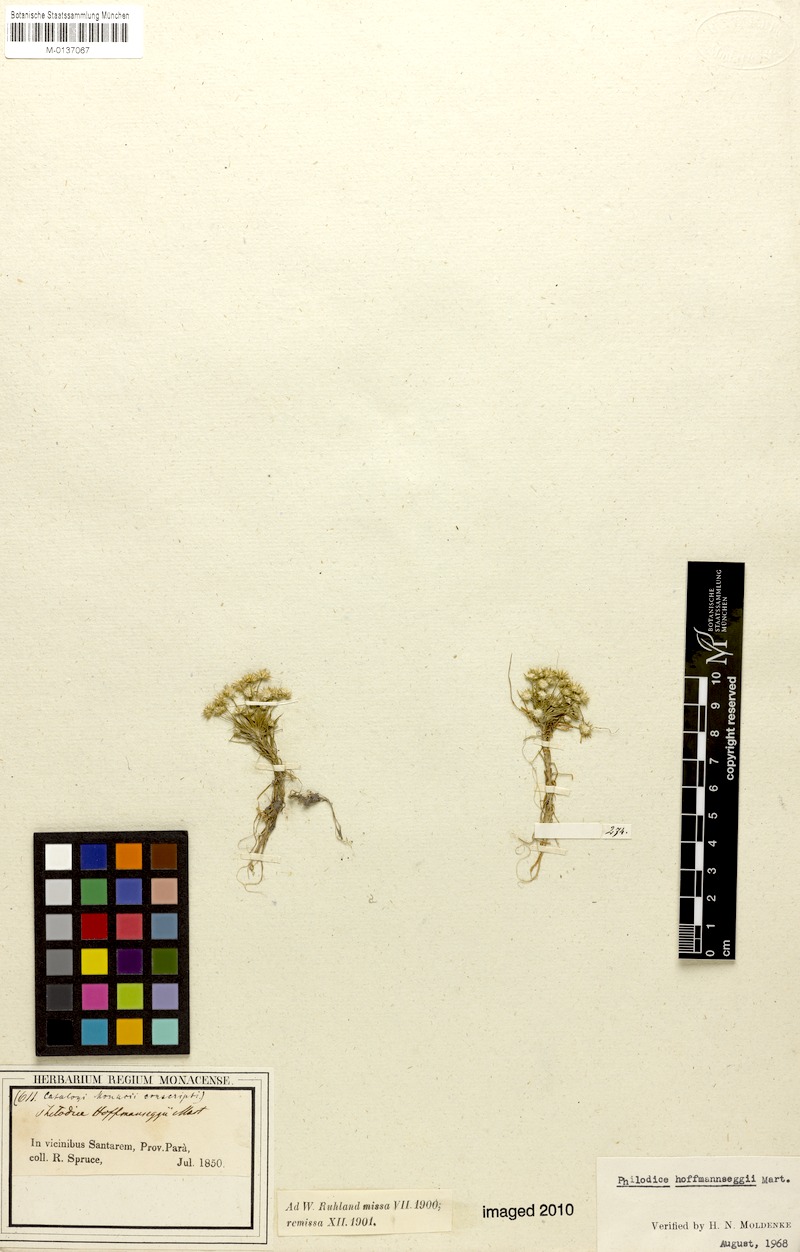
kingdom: Plantae
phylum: Tracheophyta
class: Liliopsida
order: Poales
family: Eriocaulaceae
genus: Syngonanthus
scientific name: Syngonanthus cuyabensis
